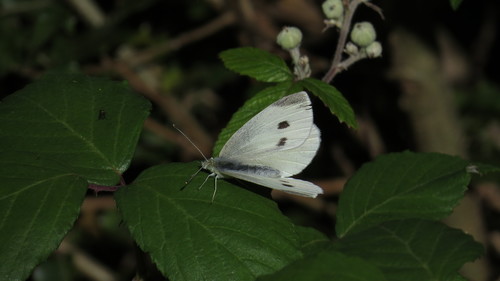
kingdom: Animalia
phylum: Arthropoda
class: Insecta
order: Lepidoptera
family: Pieridae
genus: Pieris
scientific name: Pieris rapae
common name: Small white
